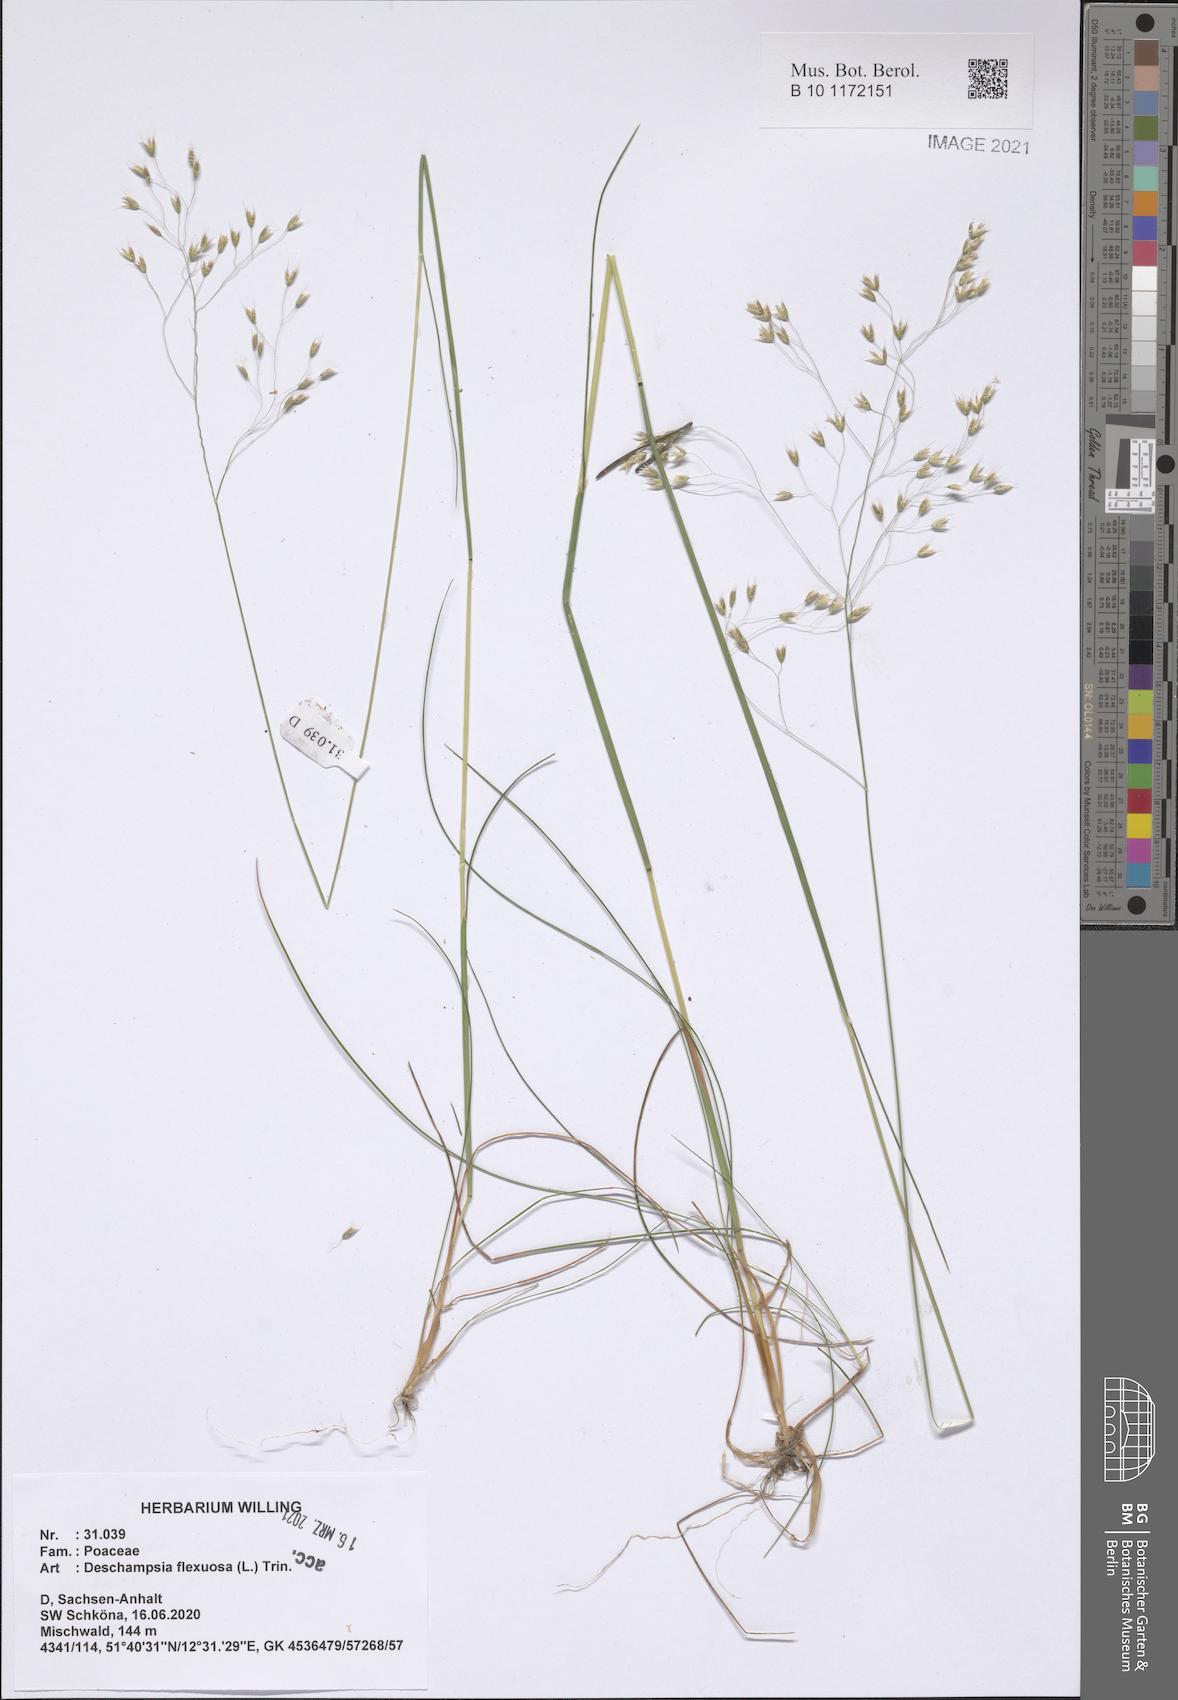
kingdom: Plantae
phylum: Tracheophyta
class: Liliopsida
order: Poales
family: Poaceae
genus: Avenella
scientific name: Avenella flexuosa
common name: Wavy hairgrass
